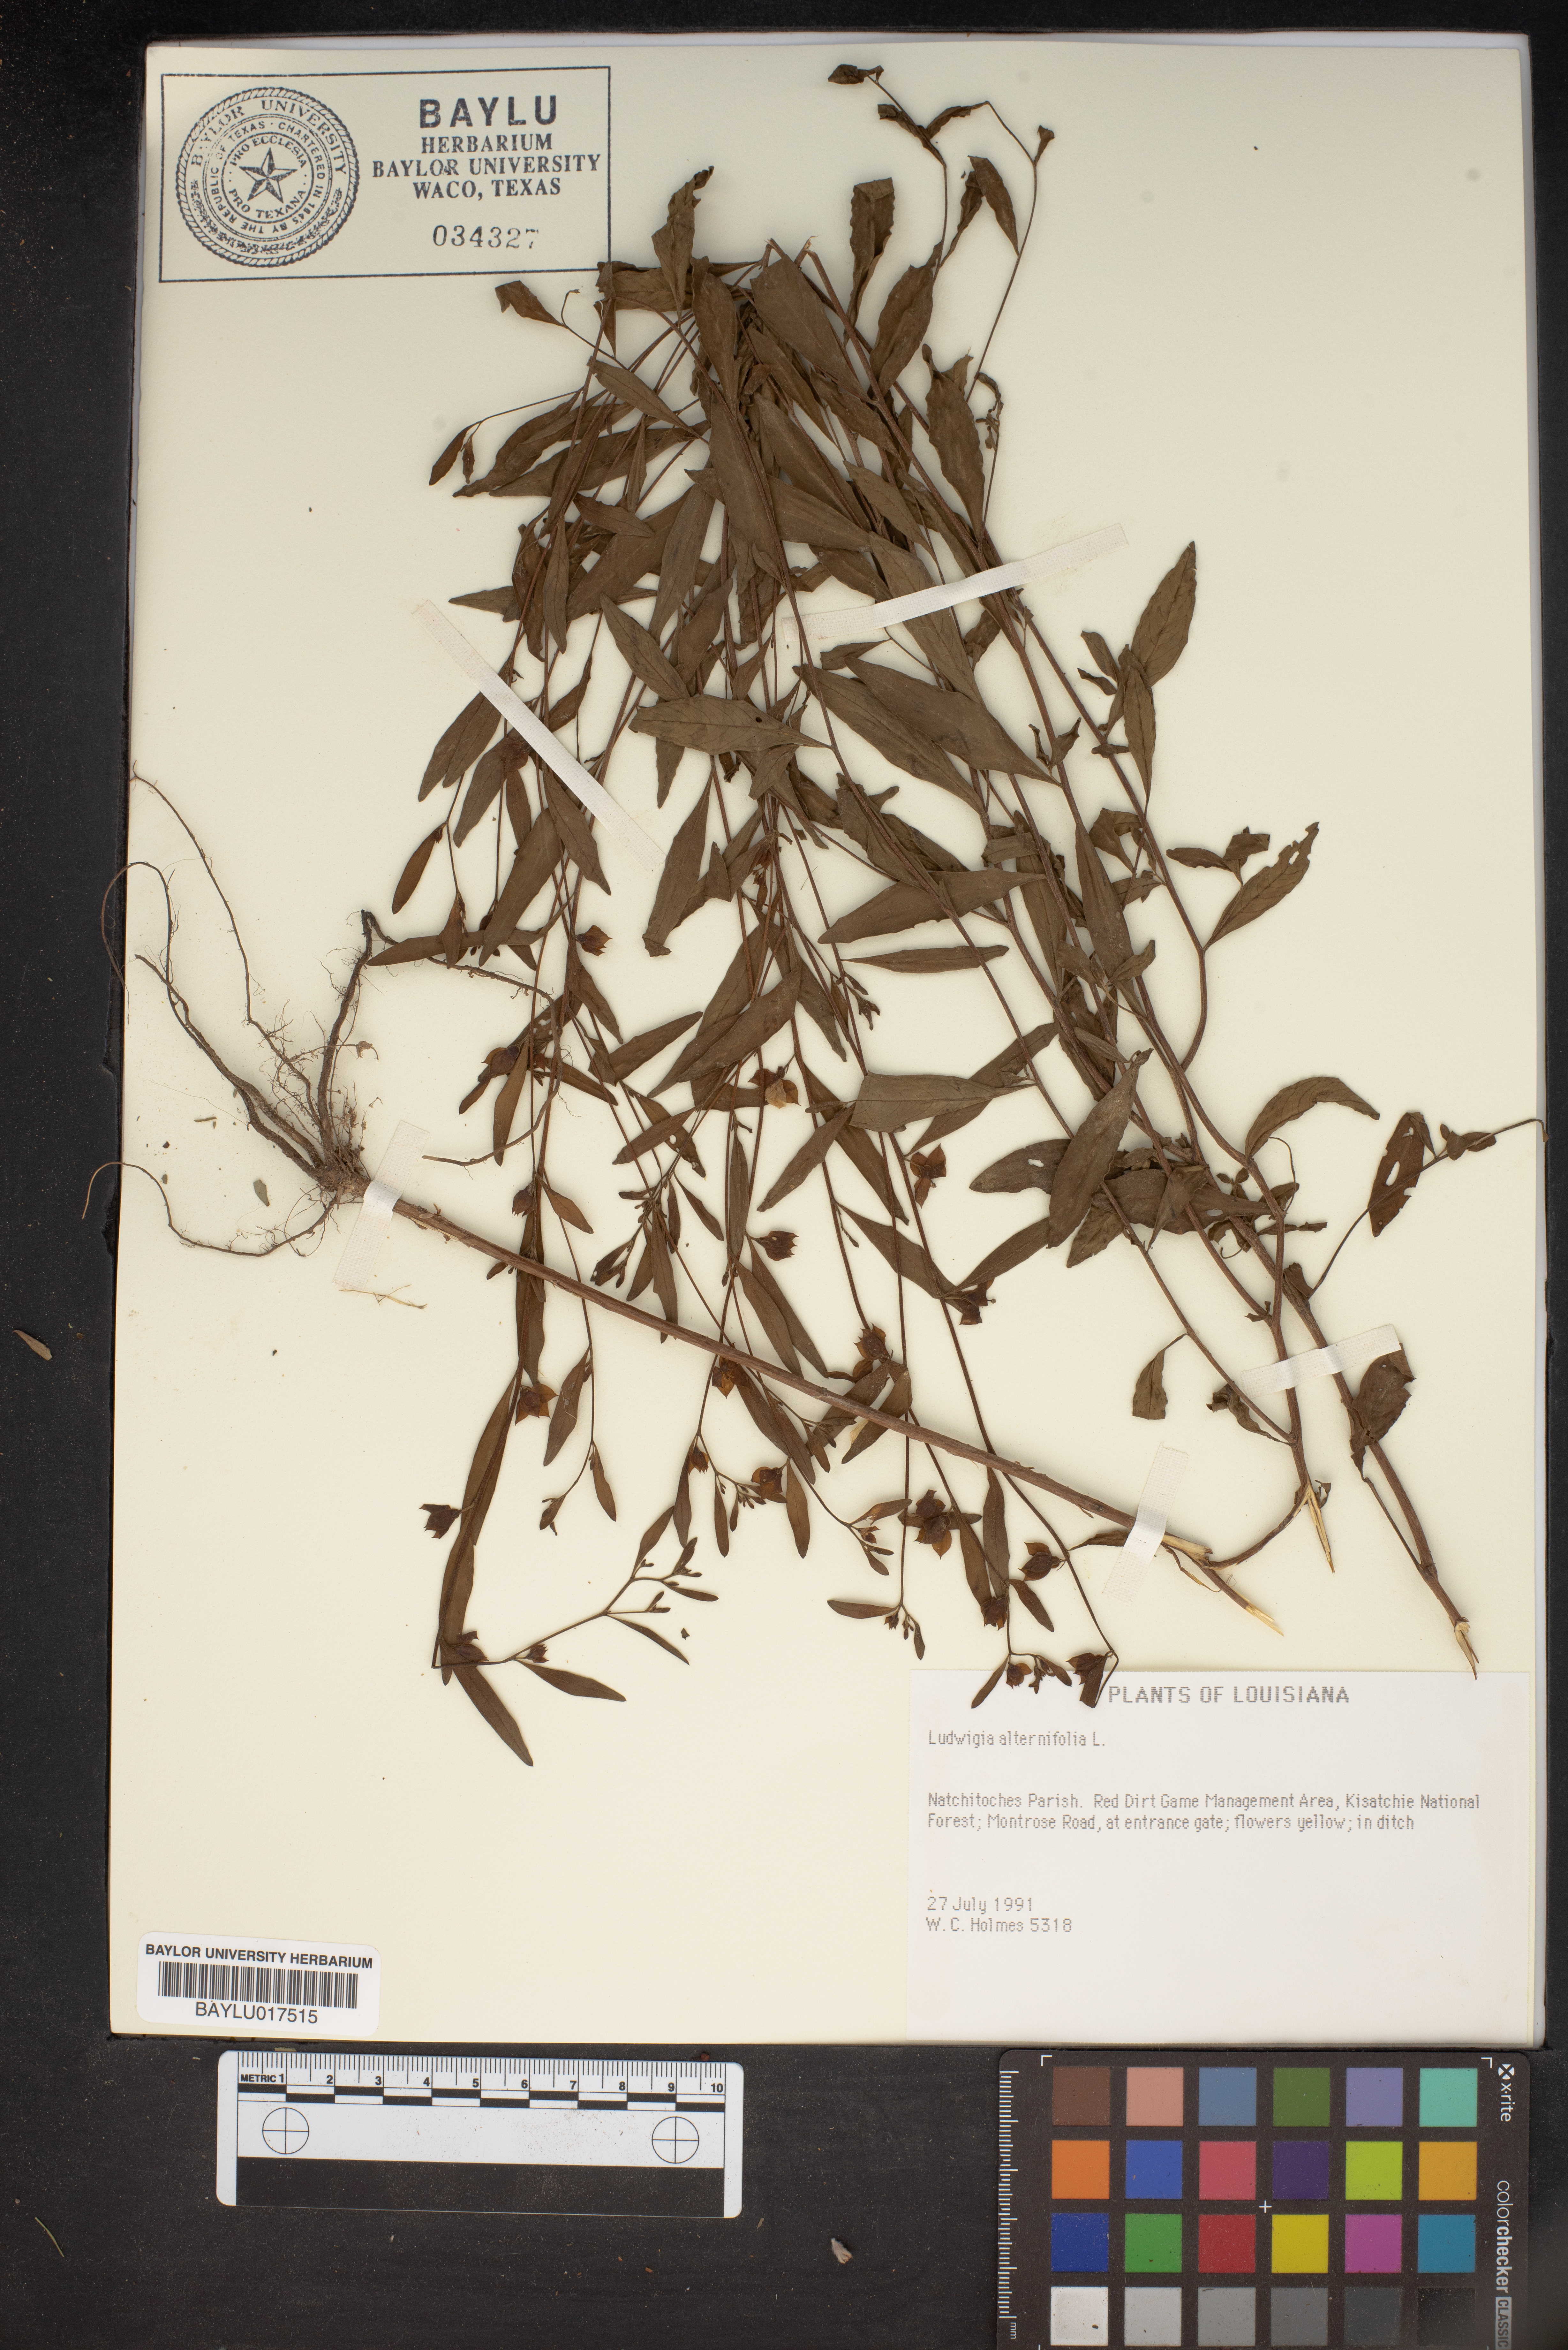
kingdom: Plantae
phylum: Tracheophyta
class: Magnoliopsida
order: Myrtales
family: Onagraceae
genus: Ludwigia
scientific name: Ludwigia alternifolia
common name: Rattlebox
